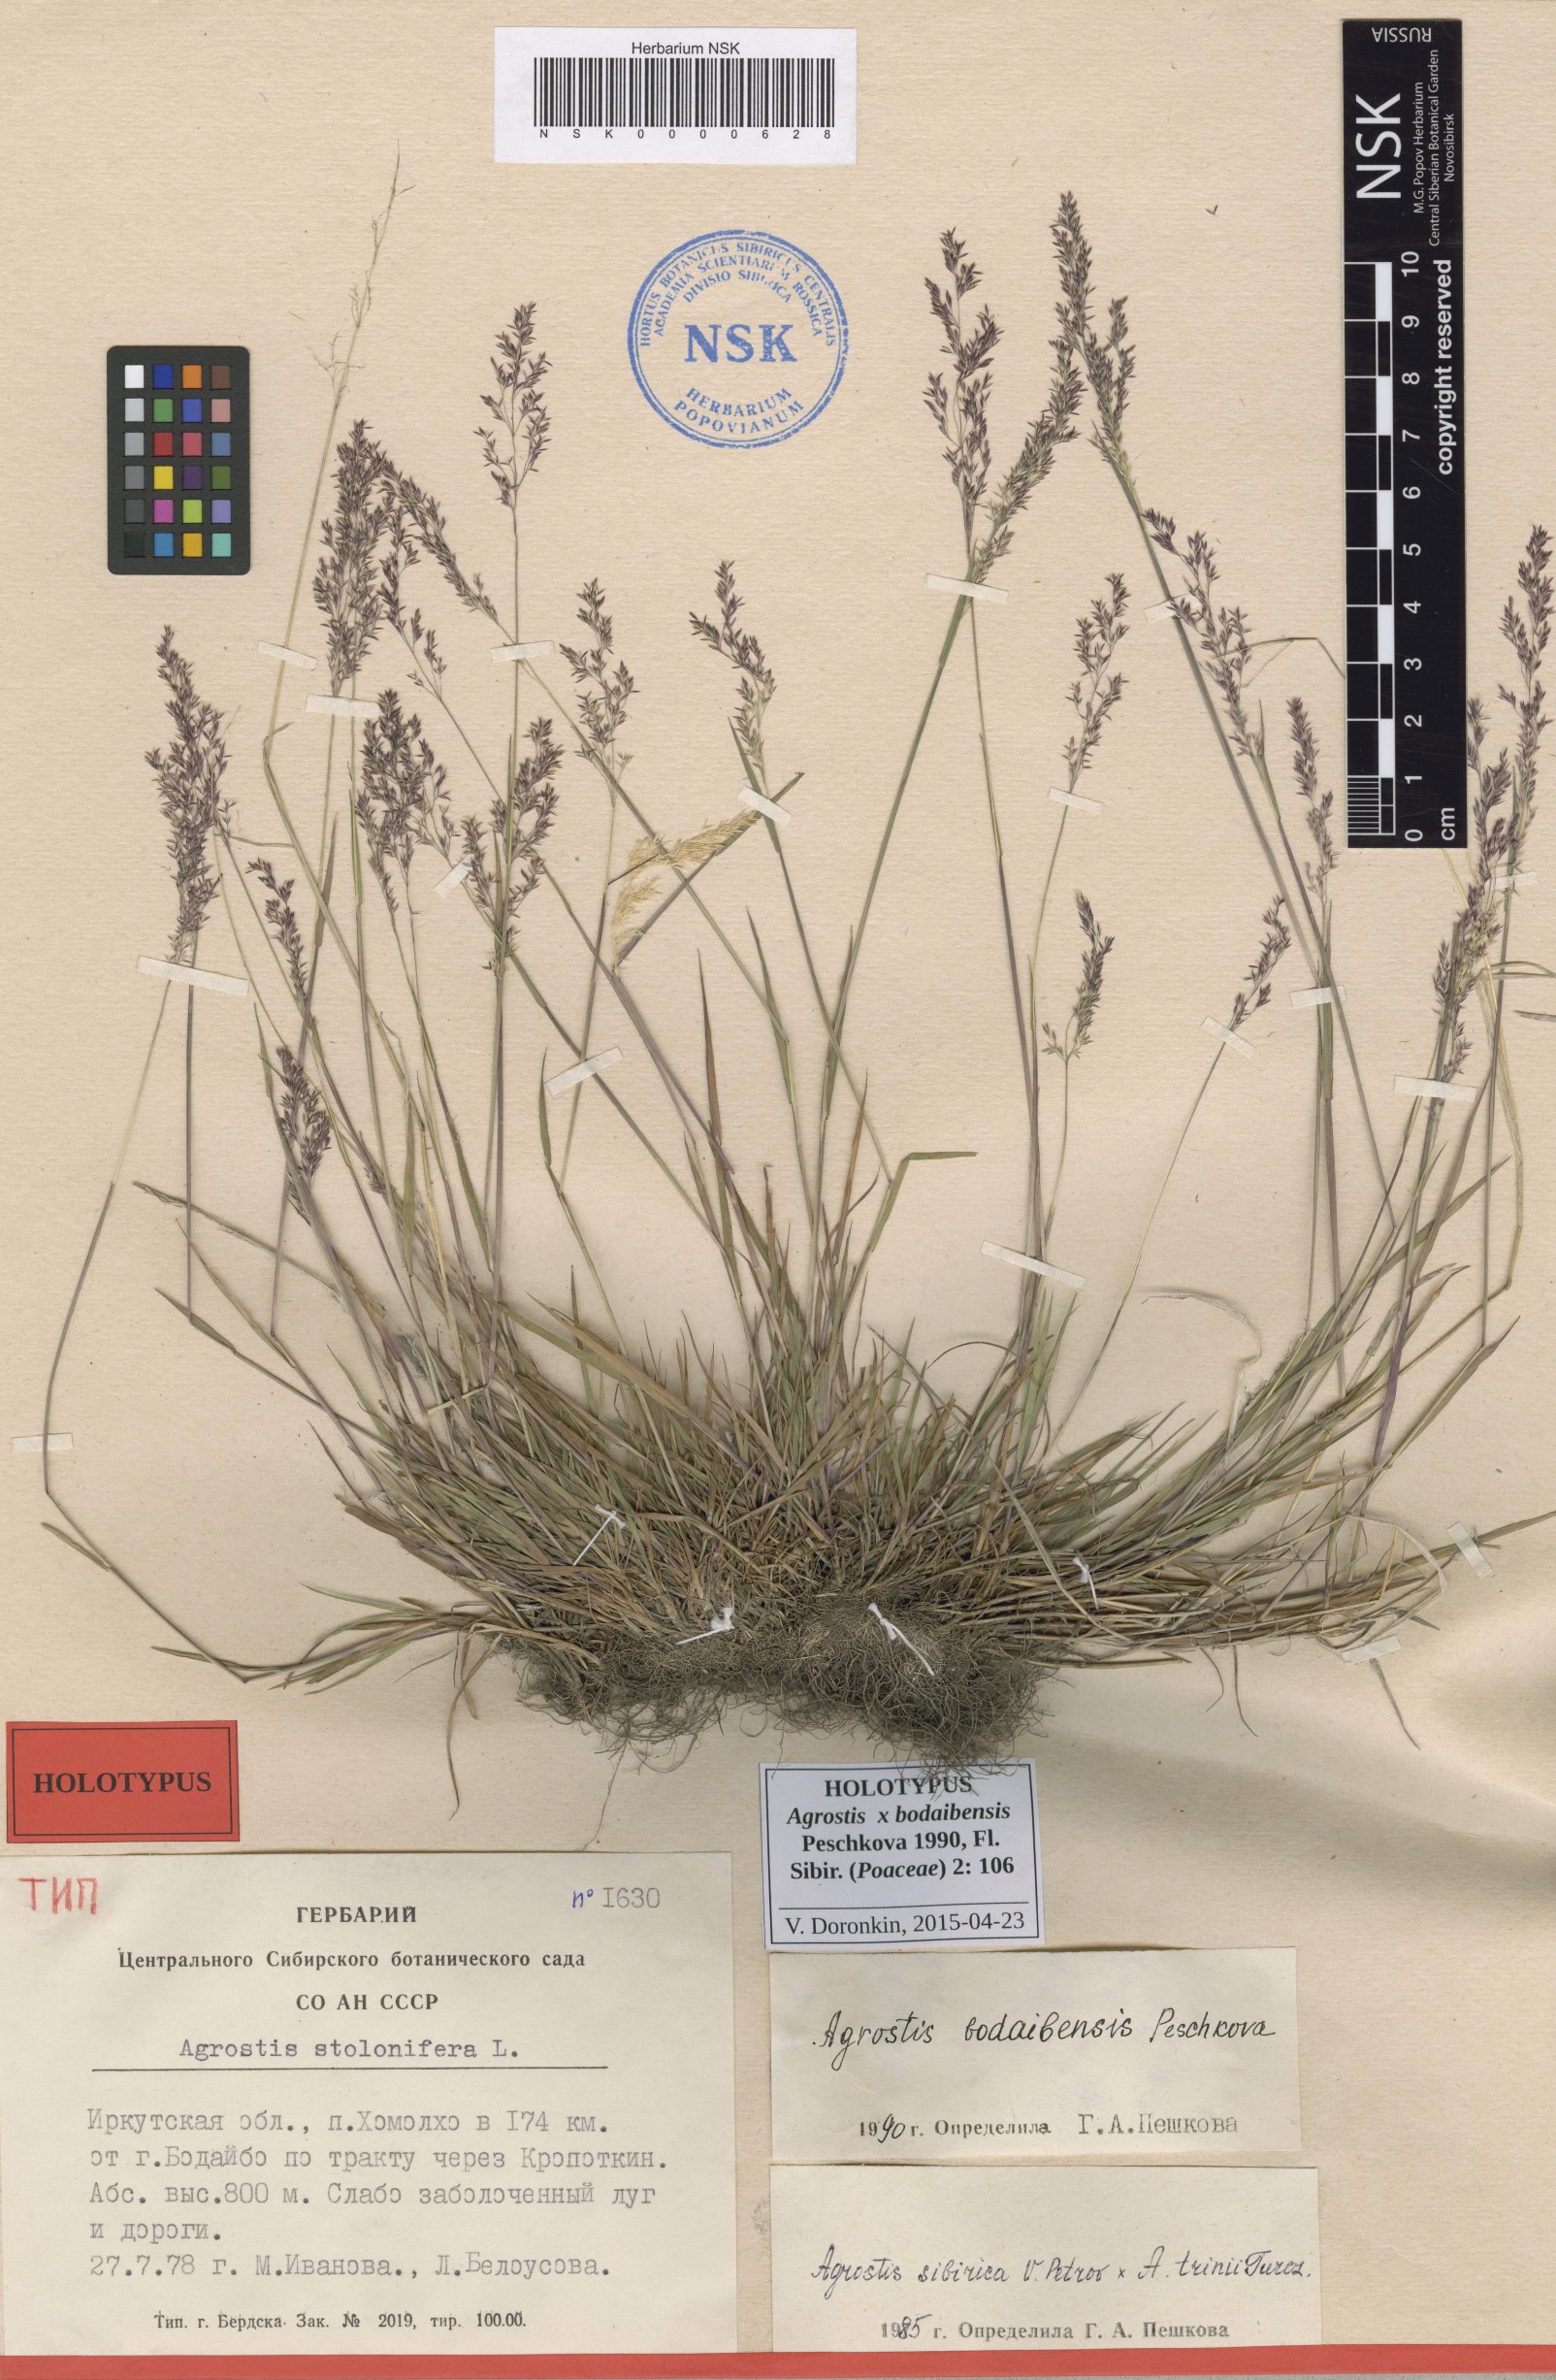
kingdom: Plantae
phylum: Tracheophyta
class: Liliopsida
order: Poales
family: Poaceae
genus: Agrostis
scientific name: Agrostis stolonifera
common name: Creeping bentgrass
